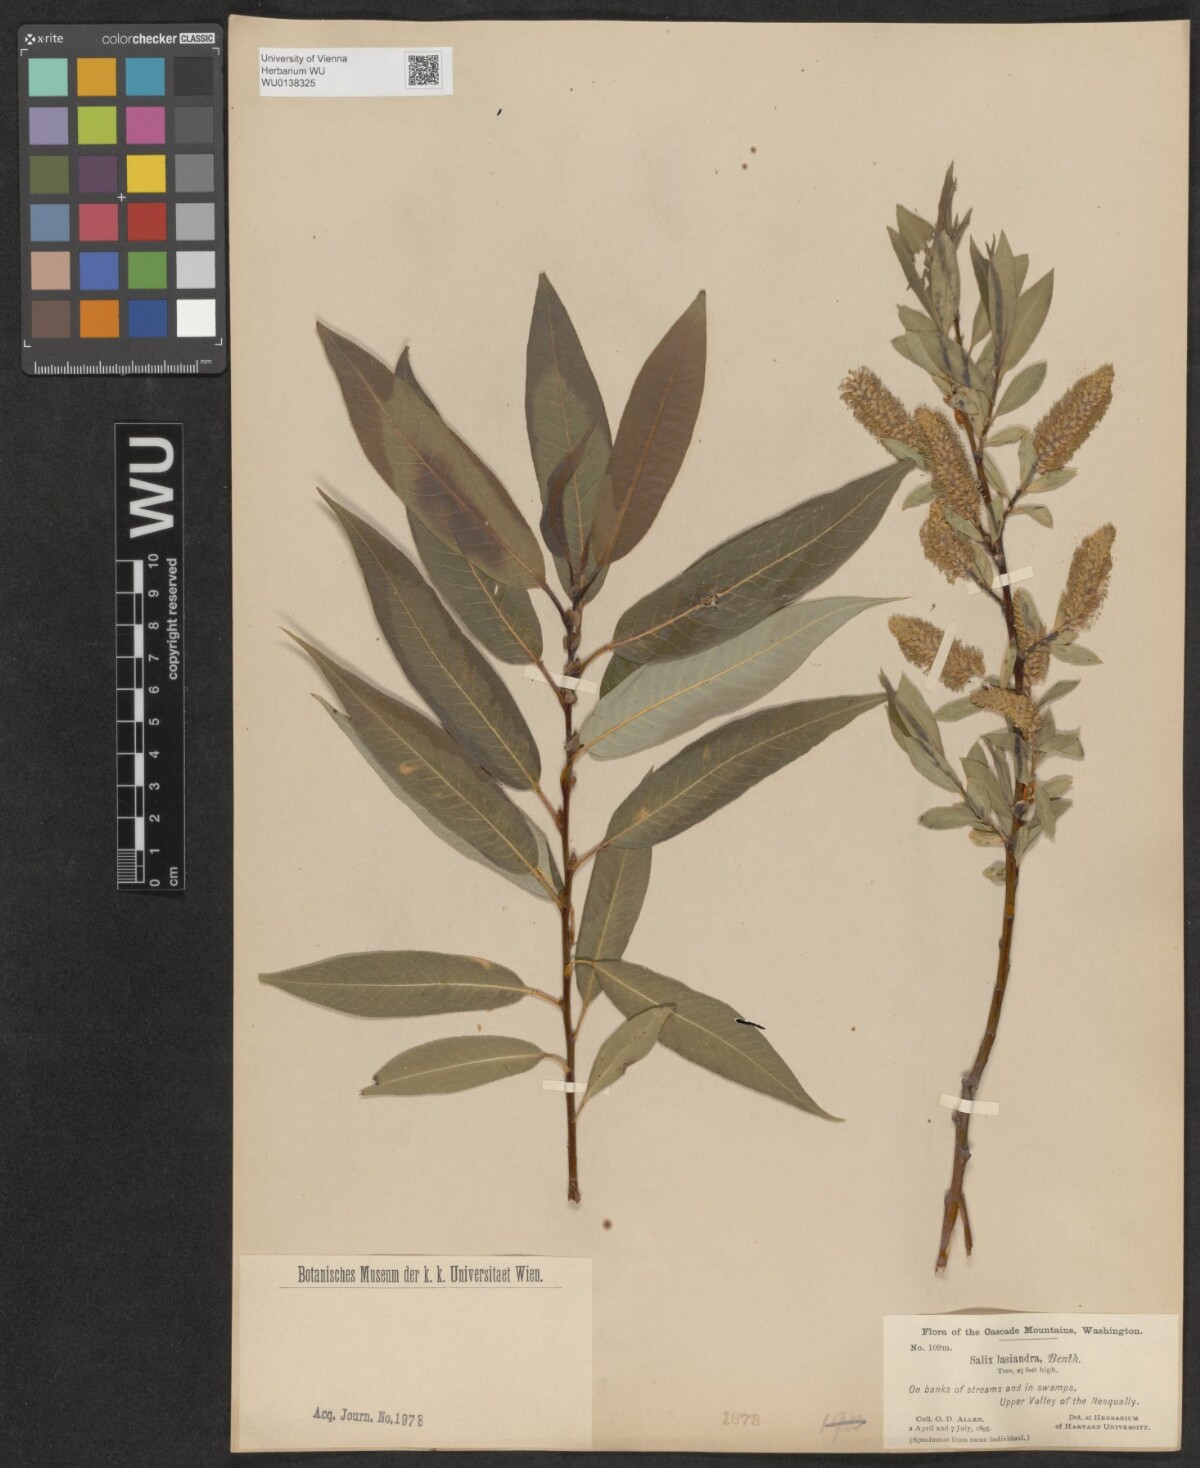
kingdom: Plantae
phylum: Tracheophyta
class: Magnoliopsida
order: Malpighiales
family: Salicaceae
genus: Salix
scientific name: Salix lucida
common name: Shining willow
